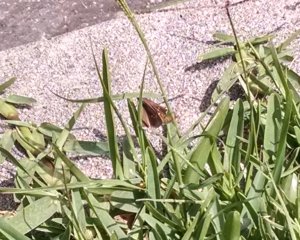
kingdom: Animalia
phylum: Arthropoda
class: Insecta
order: Lepidoptera
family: Hesperiidae
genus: Lerodea
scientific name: Lerodea eufala
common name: Eufala Skipper
